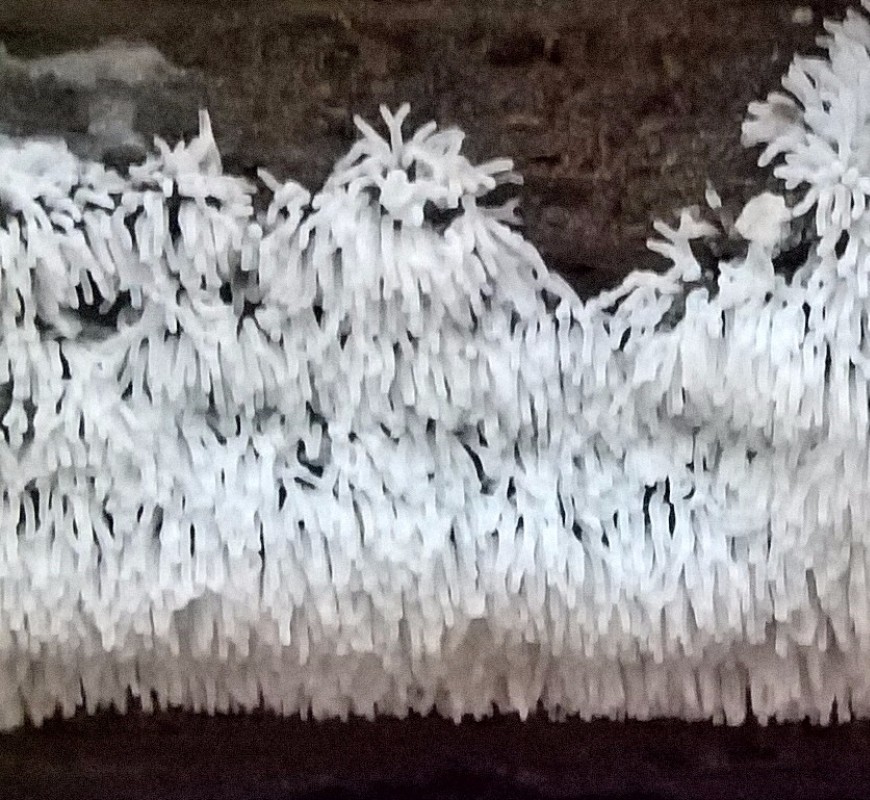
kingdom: Protozoa
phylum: Mycetozoa
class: Protosteliomycetes
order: Ceratiomyxales
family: Ceratiomyxaceae
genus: Ceratiomyxa
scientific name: Ceratiomyxa fruticulosa
